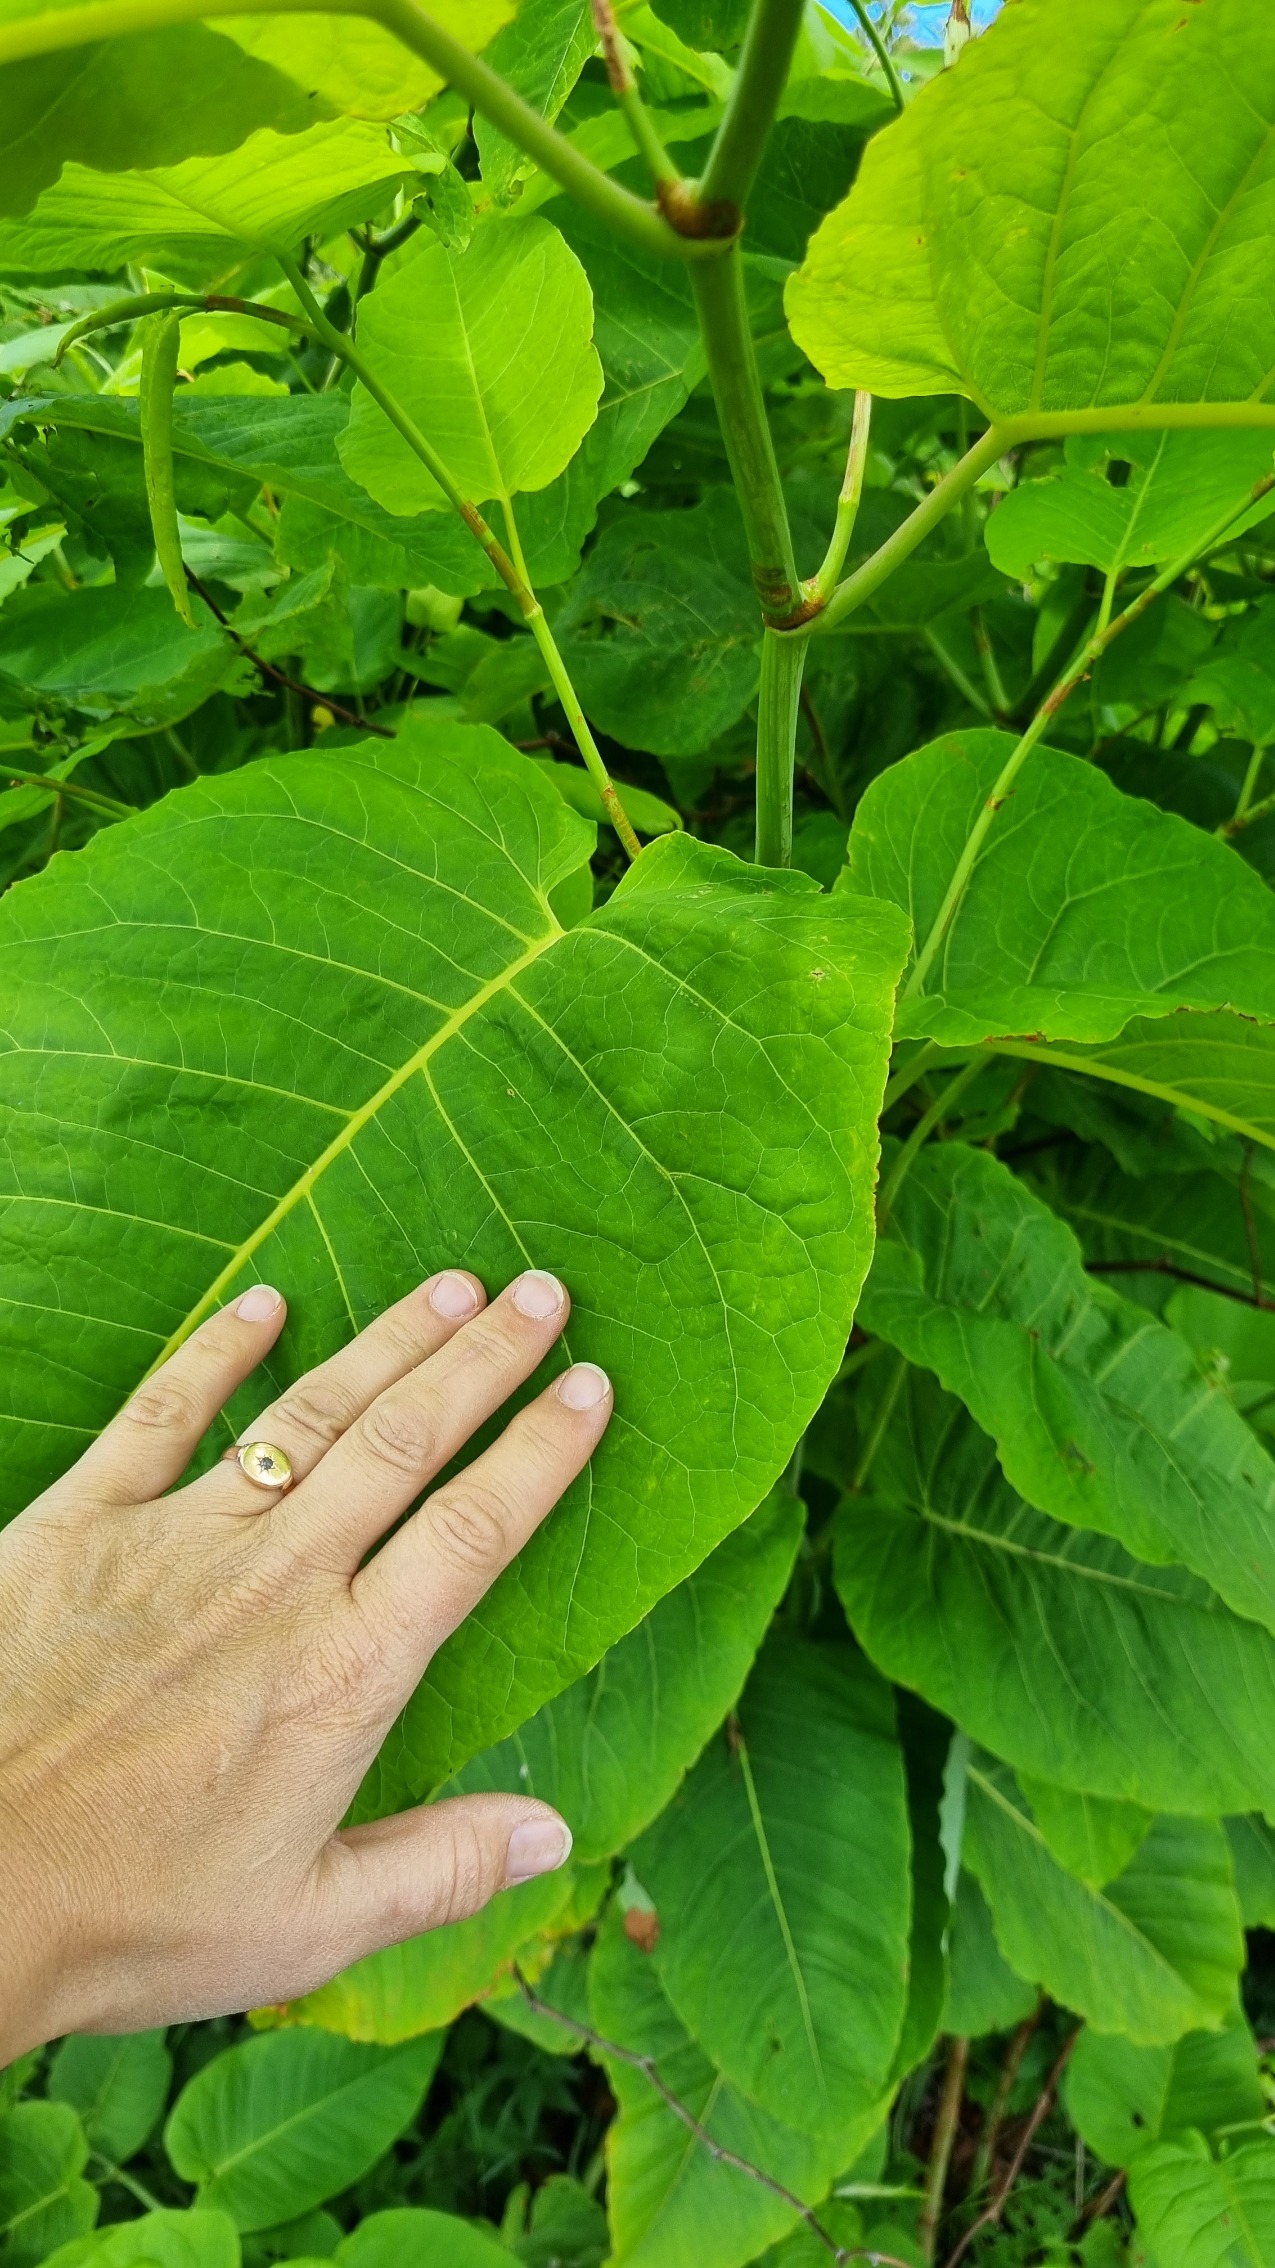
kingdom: Plantae
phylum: Tracheophyta
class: Magnoliopsida
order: Caryophyllales
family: Polygonaceae
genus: Reynoutria
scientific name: Reynoutria sachalinensis
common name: Kæmpe-pileurt
